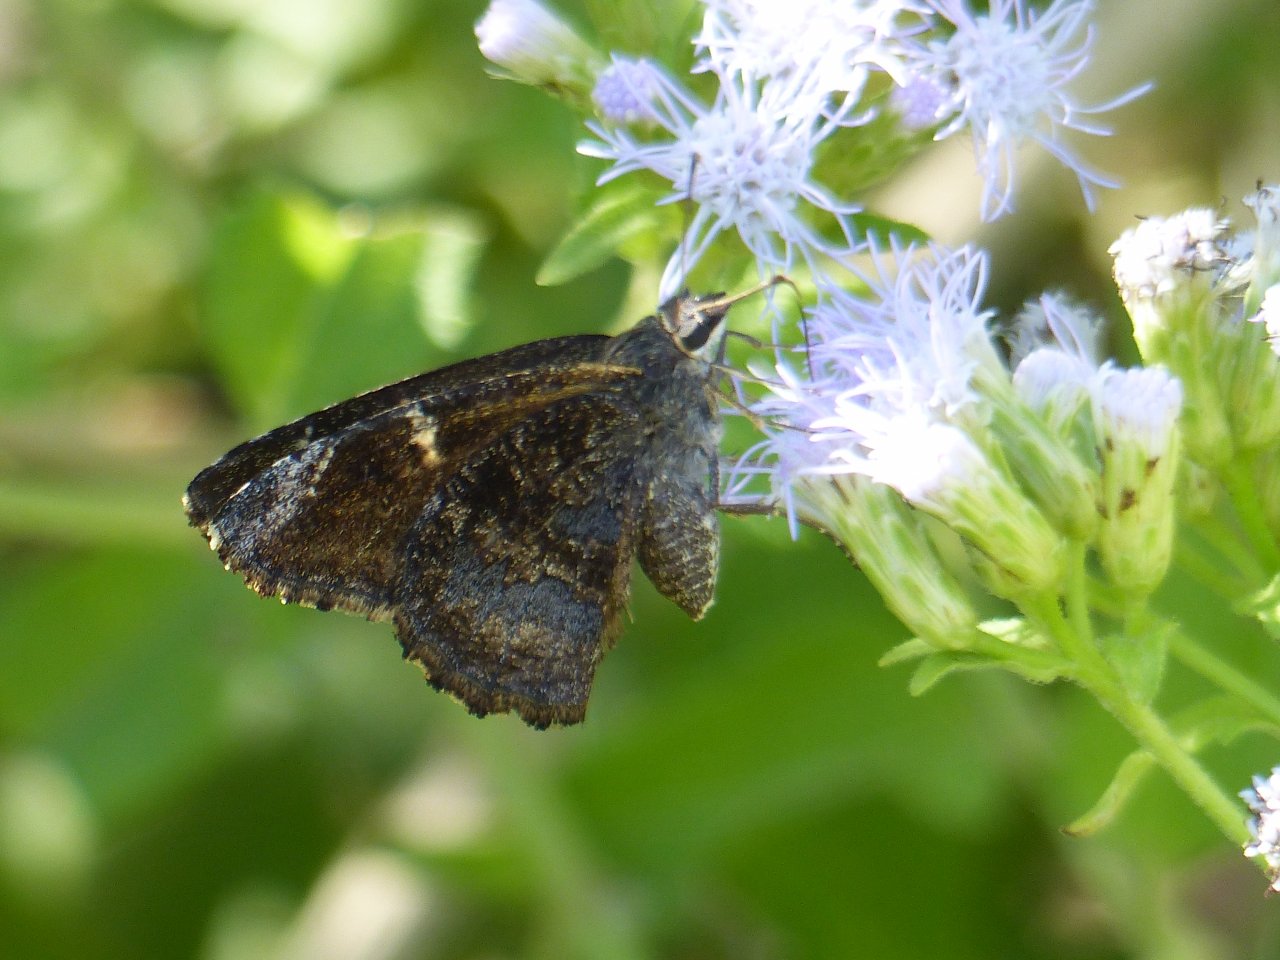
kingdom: Animalia
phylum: Arthropoda
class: Insecta
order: Lepidoptera
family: Hesperiidae
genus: Caicella
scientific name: Caicella calchas
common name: Mimosa Skipper
